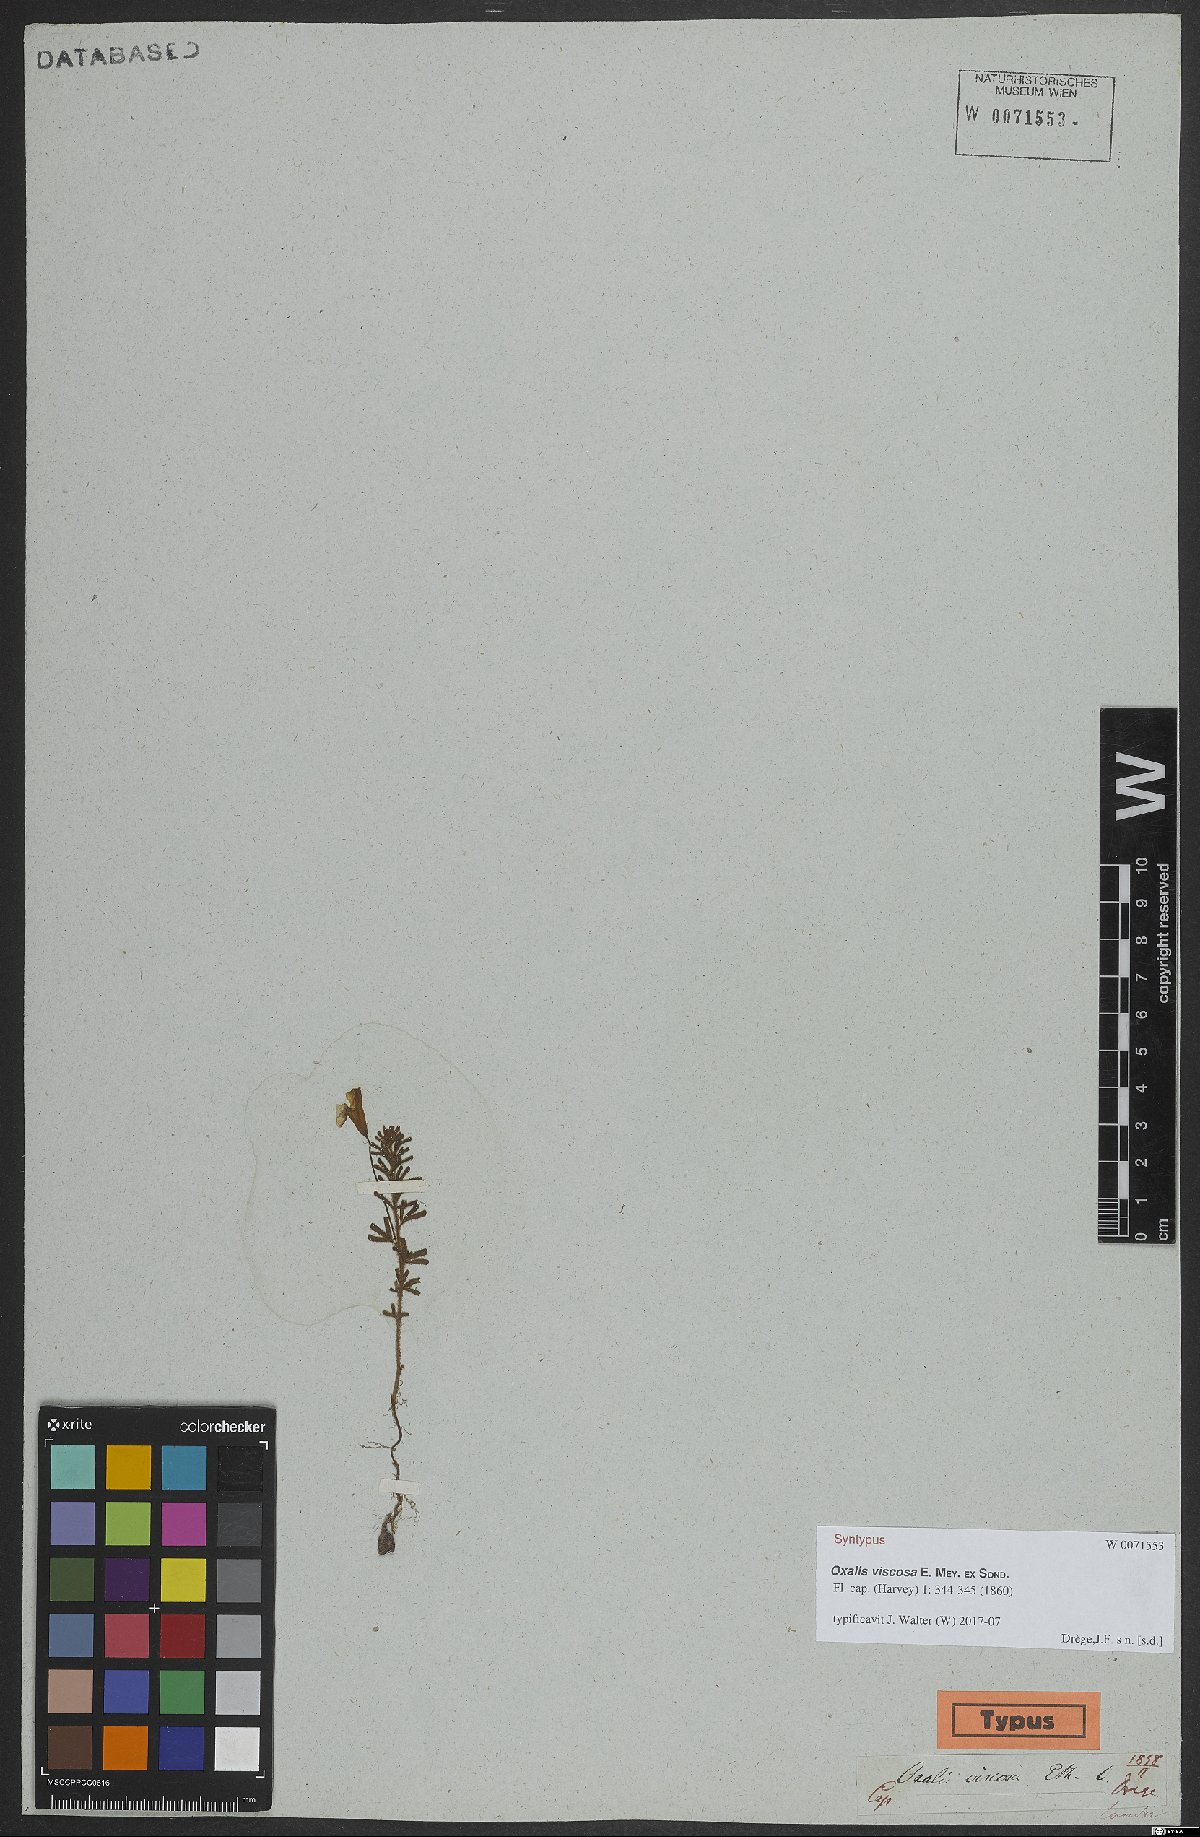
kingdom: Plantae
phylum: Tracheophyta
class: Magnoliopsida
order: Oxalidales
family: Oxalidaceae
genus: Oxalis
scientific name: Oxalis viscosa
